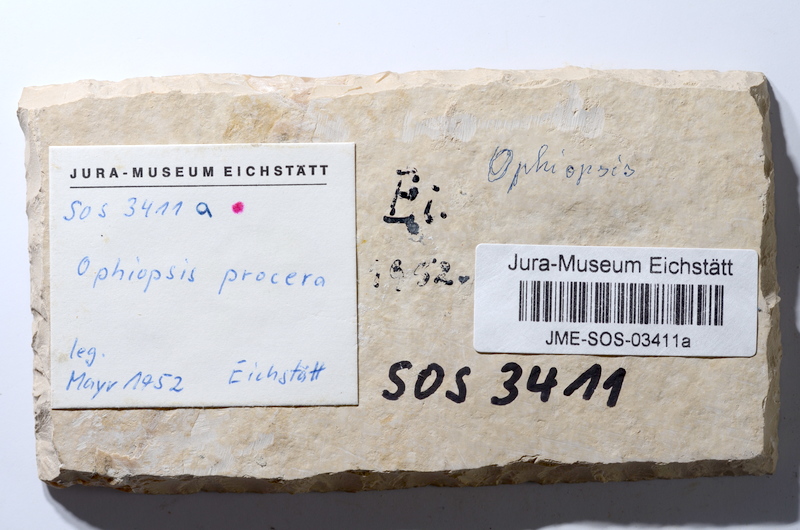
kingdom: Animalia
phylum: Chordata
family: Ophiopsiellidae
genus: Ophiopsiella
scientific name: Ophiopsiella procera
